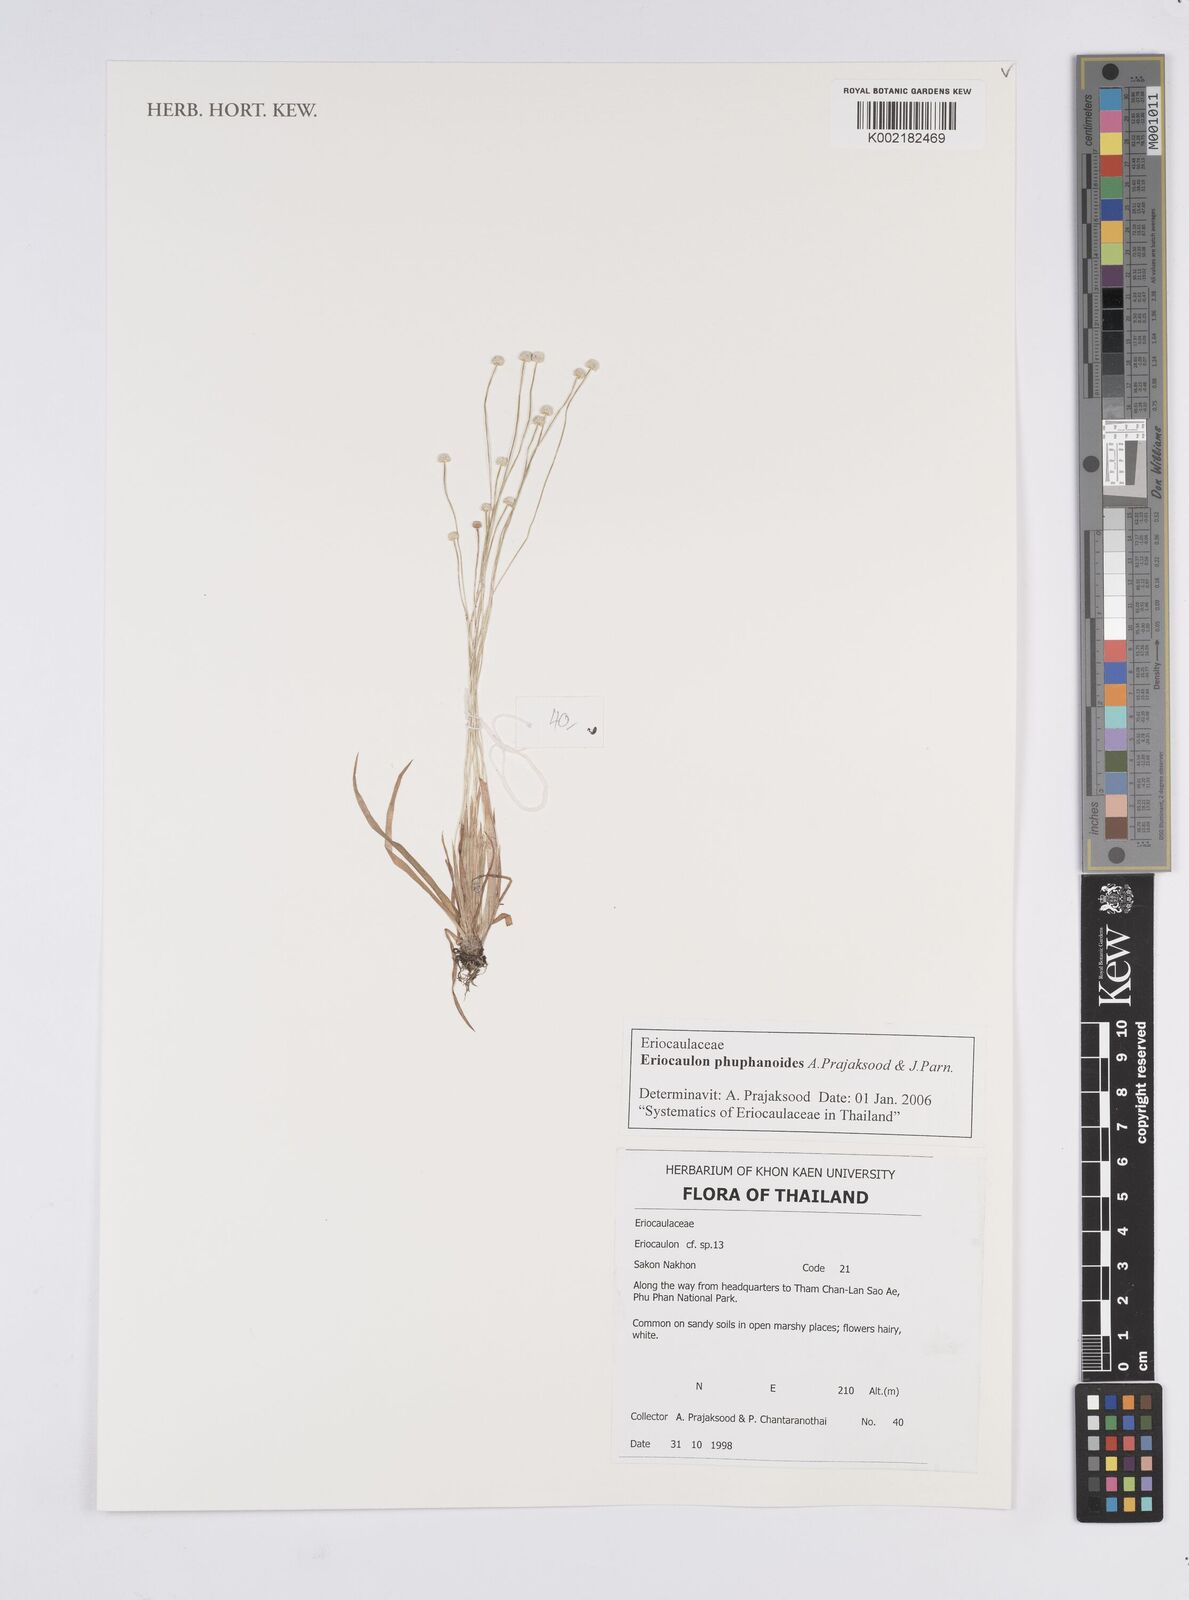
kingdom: Plantae
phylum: Tracheophyta
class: Liliopsida
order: Poales
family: Eriocaulaceae
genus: Eriocaulon
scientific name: Eriocaulon phuphanoides
